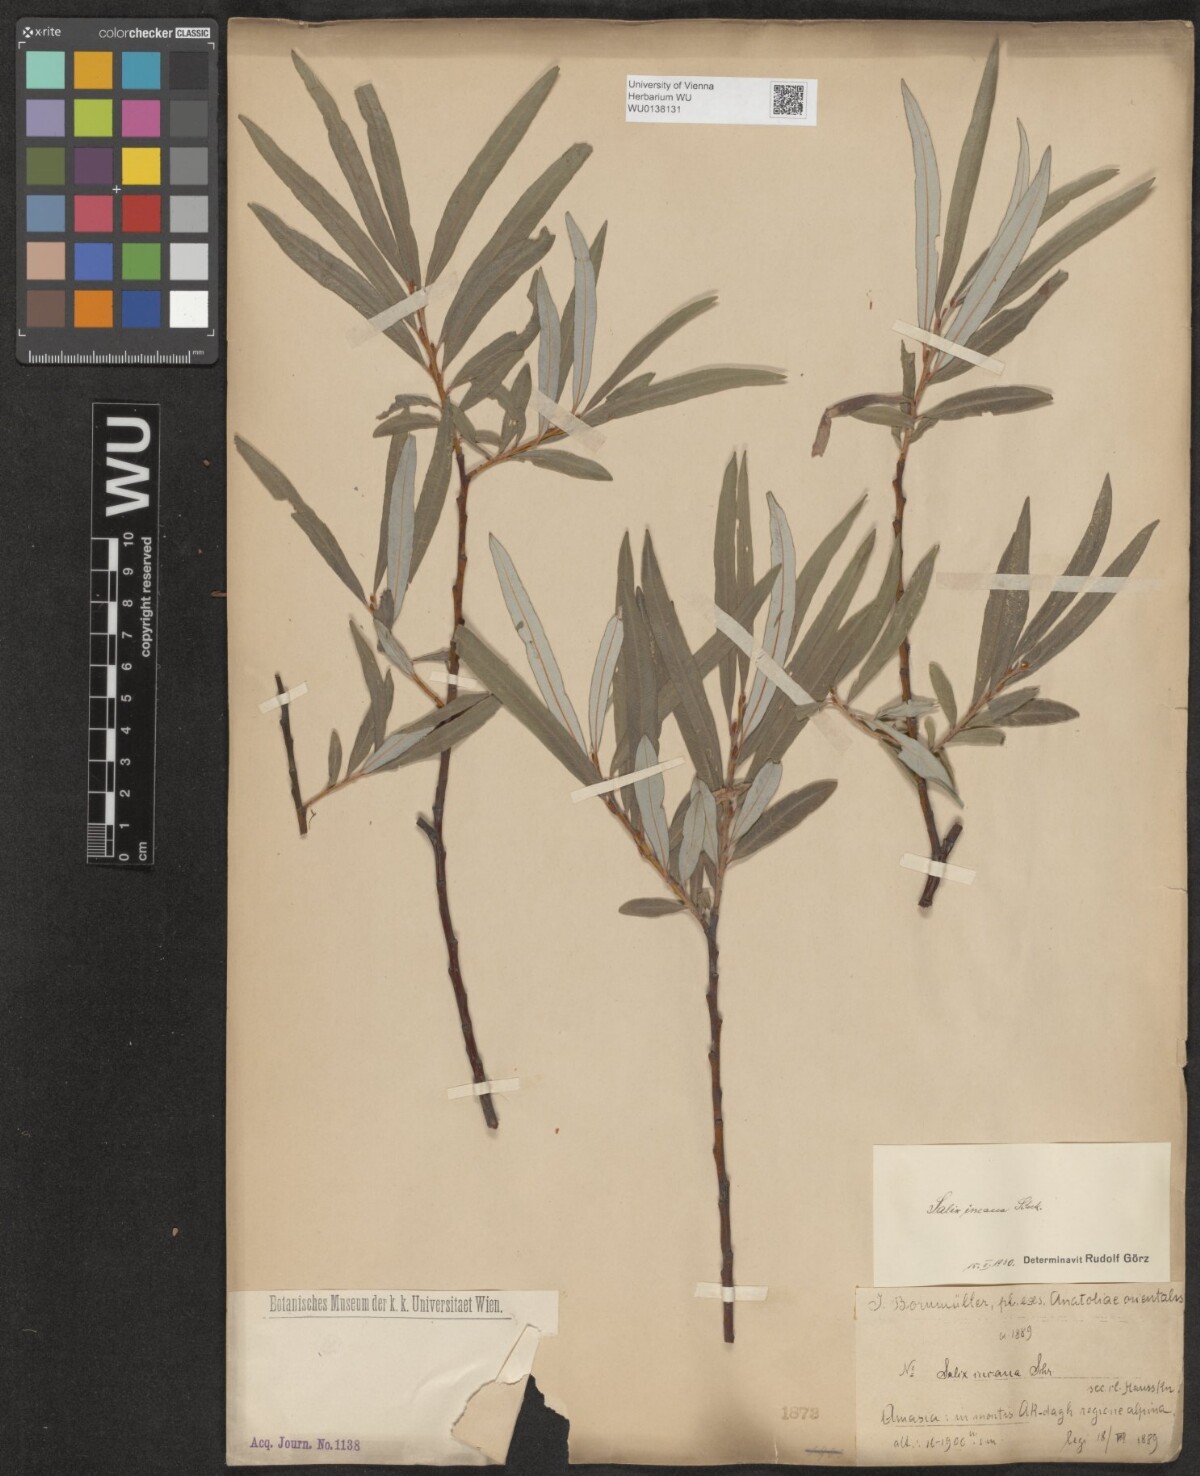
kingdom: Plantae
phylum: Tracheophyta
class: Magnoliopsida
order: Malpighiales
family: Salicaceae
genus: Salix
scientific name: Salix eleagnos
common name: Elaeagnus willow
